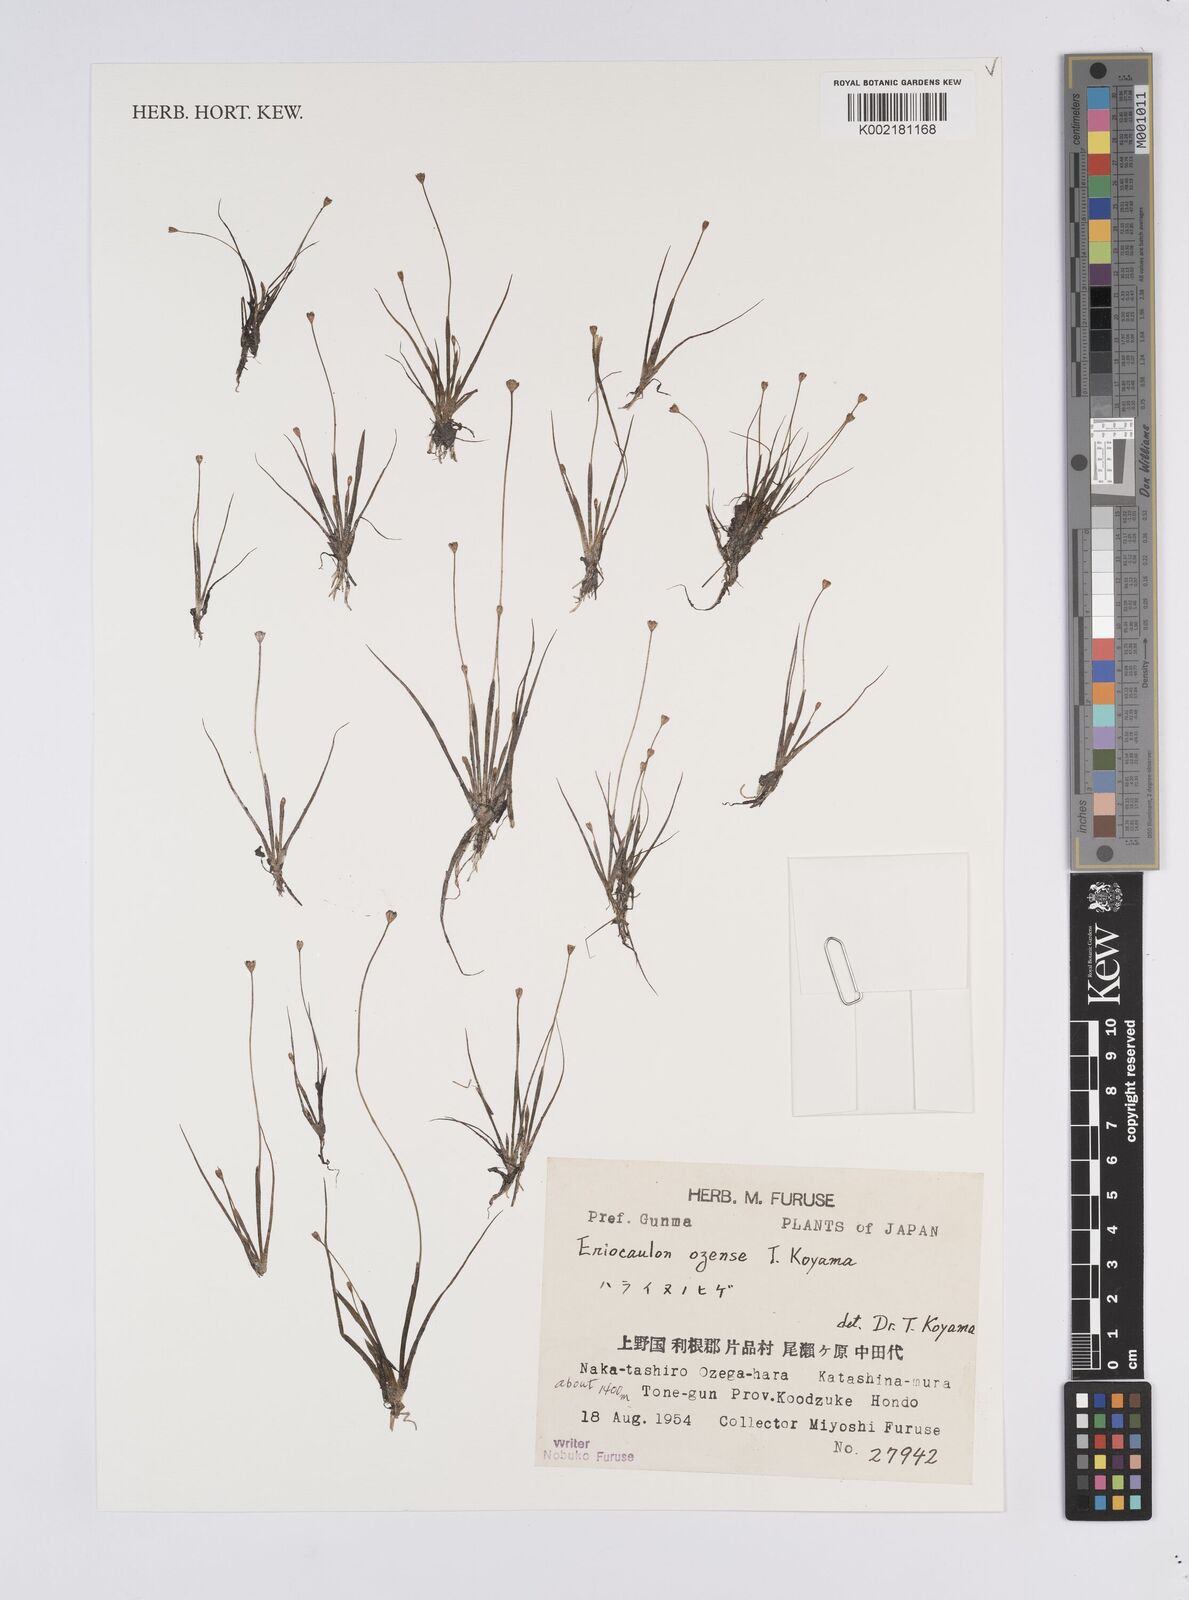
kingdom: Plantae
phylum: Tracheophyta
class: Liliopsida
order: Poales
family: Eriocaulaceae
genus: Eriocaulon
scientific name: Eriocaulon ozense
